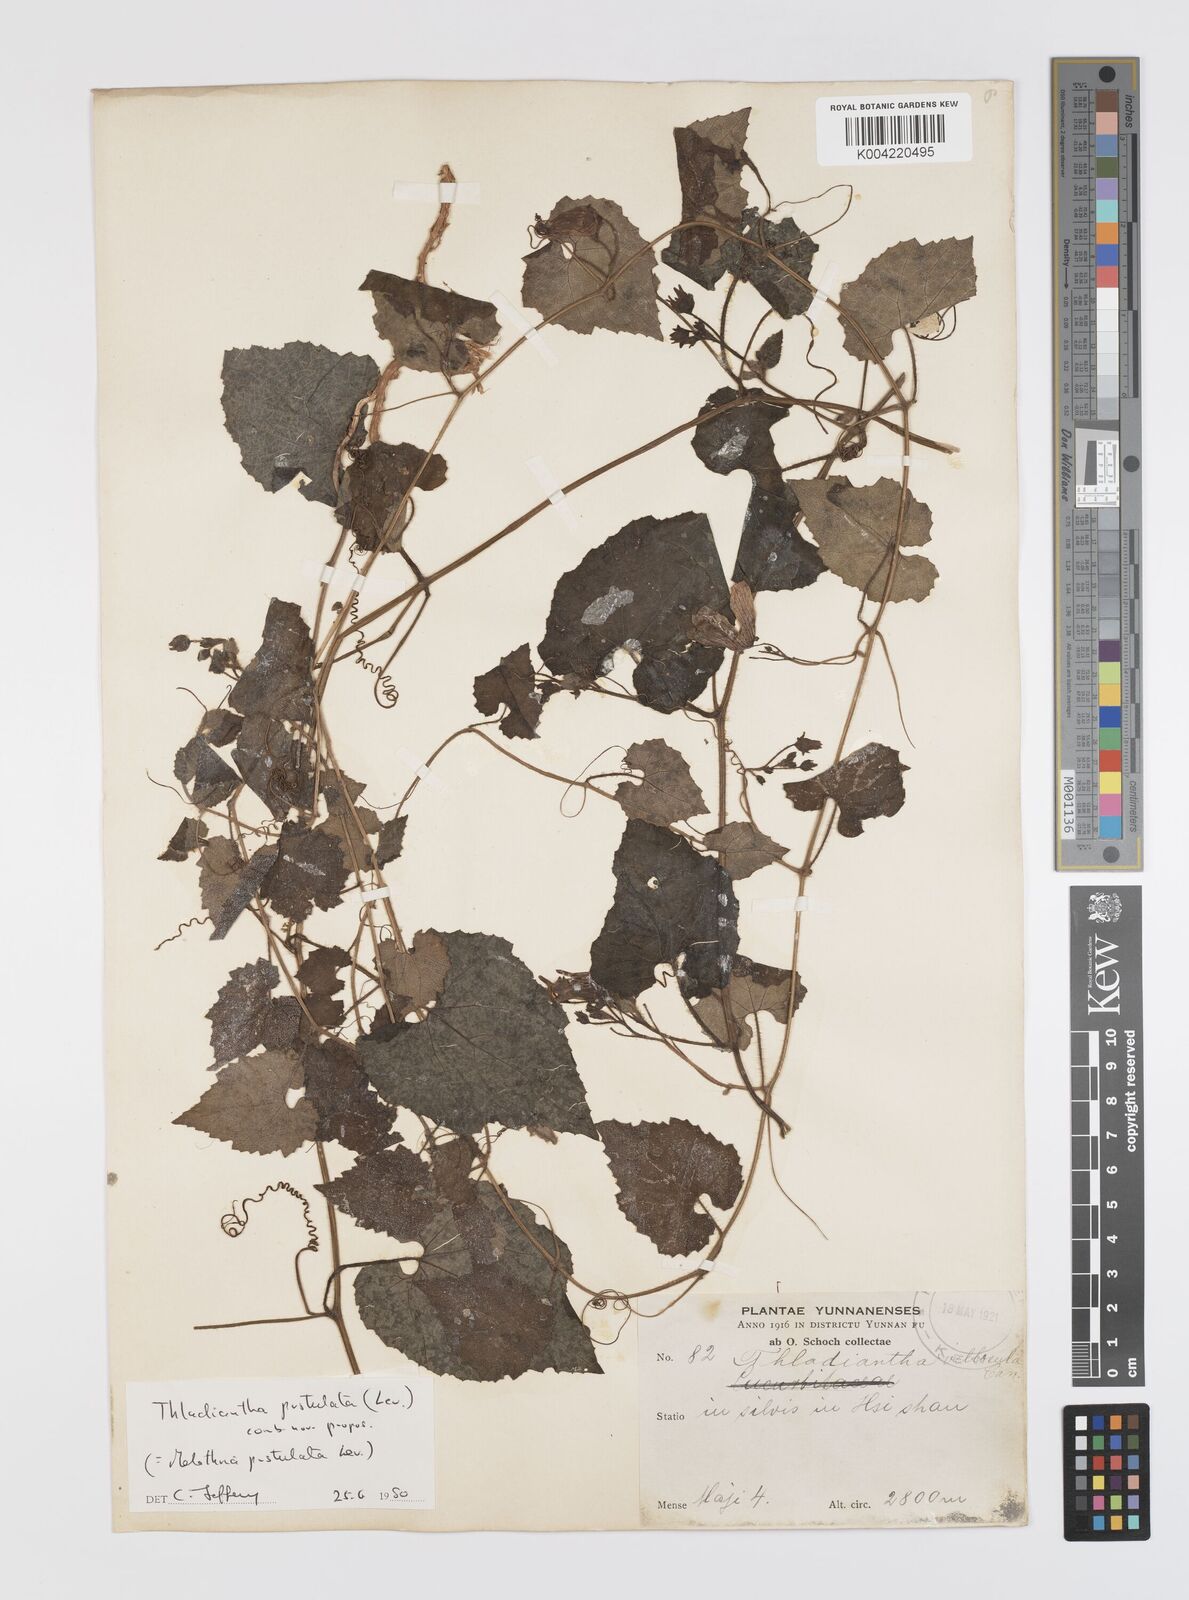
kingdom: Plantae
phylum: Tracheophyta
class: Magnoliopsida
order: Cucurbitales
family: Cucurbitaceae
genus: Thladiantha
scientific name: Thladiantha pustulata
